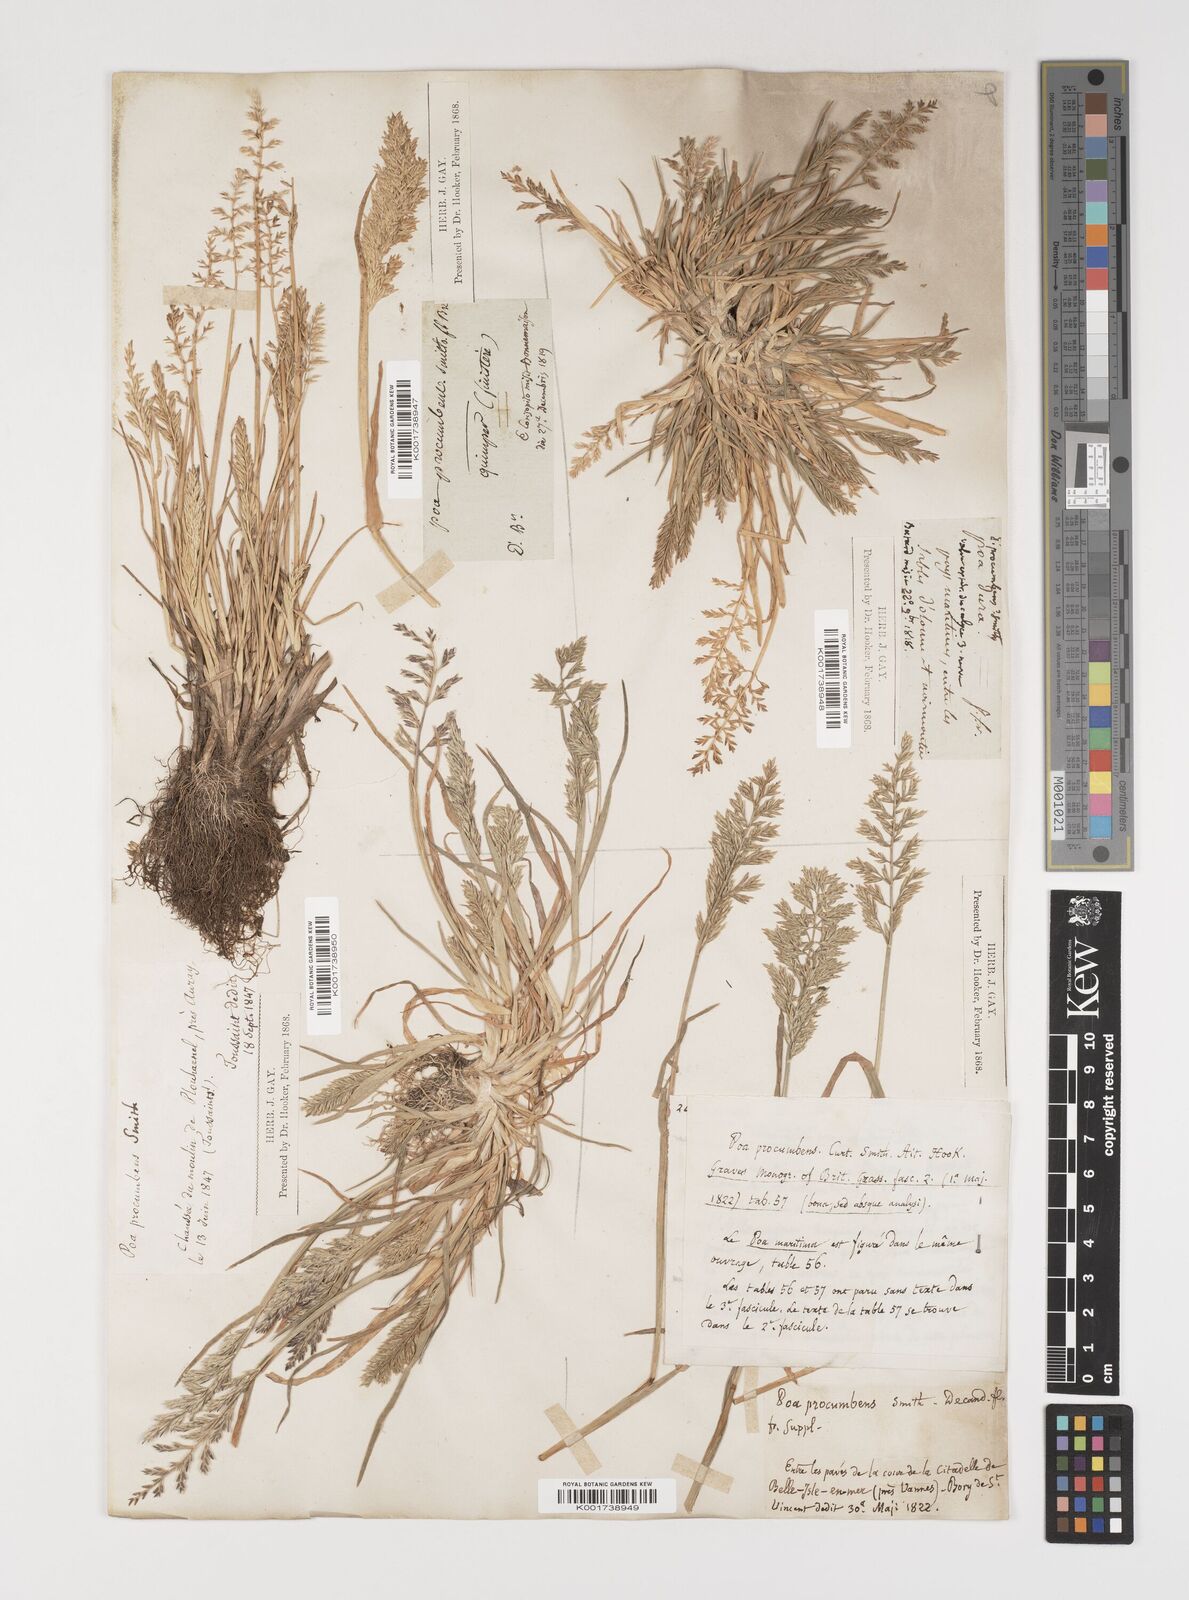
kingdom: Plantae
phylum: Tracheophyta
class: Liliopsida
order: Poales
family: Poaceae
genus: Puccinellia
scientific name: Puccinellia rupestris
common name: Stiff saltmarsh-grass
